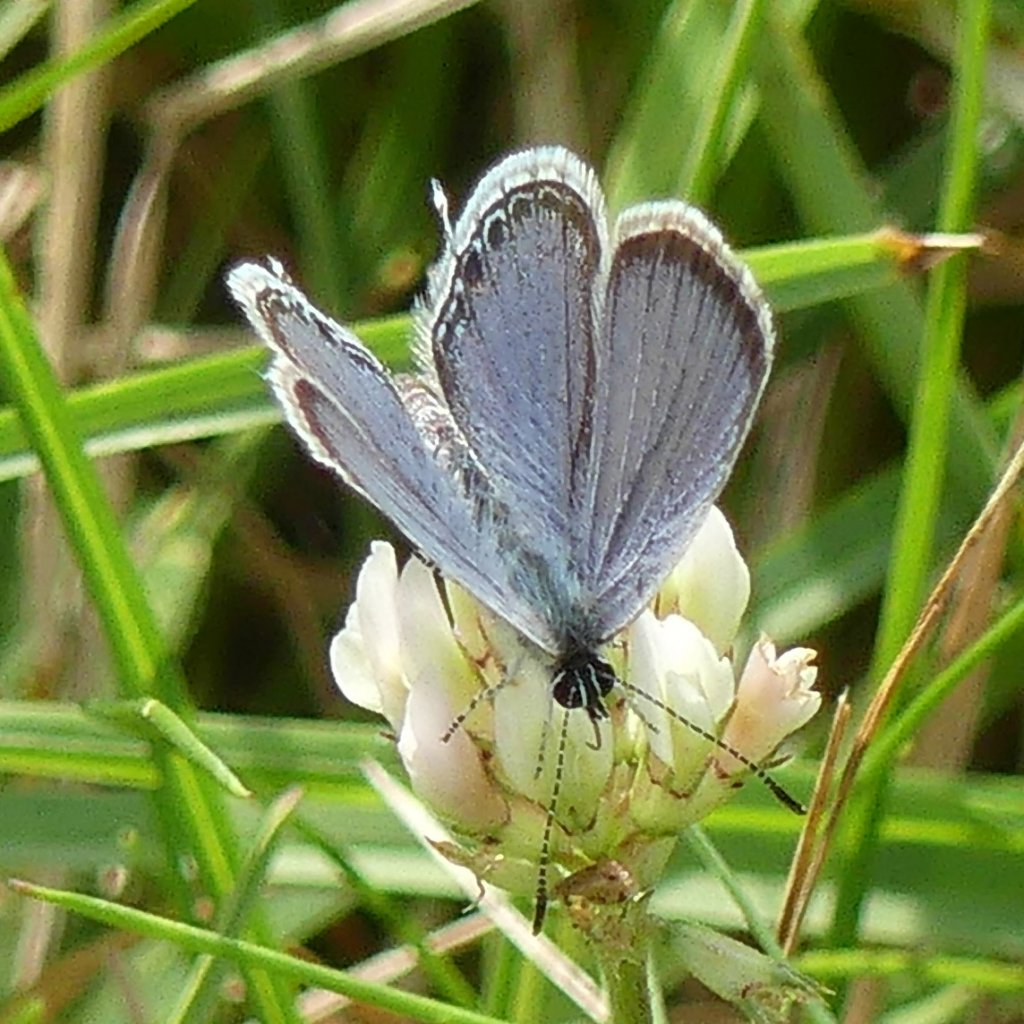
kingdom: Animalia
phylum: Arthropoda
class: Insecta
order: Lepidoptera
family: Lycaenidae
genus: Elkalyce
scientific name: Elkalyce comyntas
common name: Eastern Tailed-Blue
